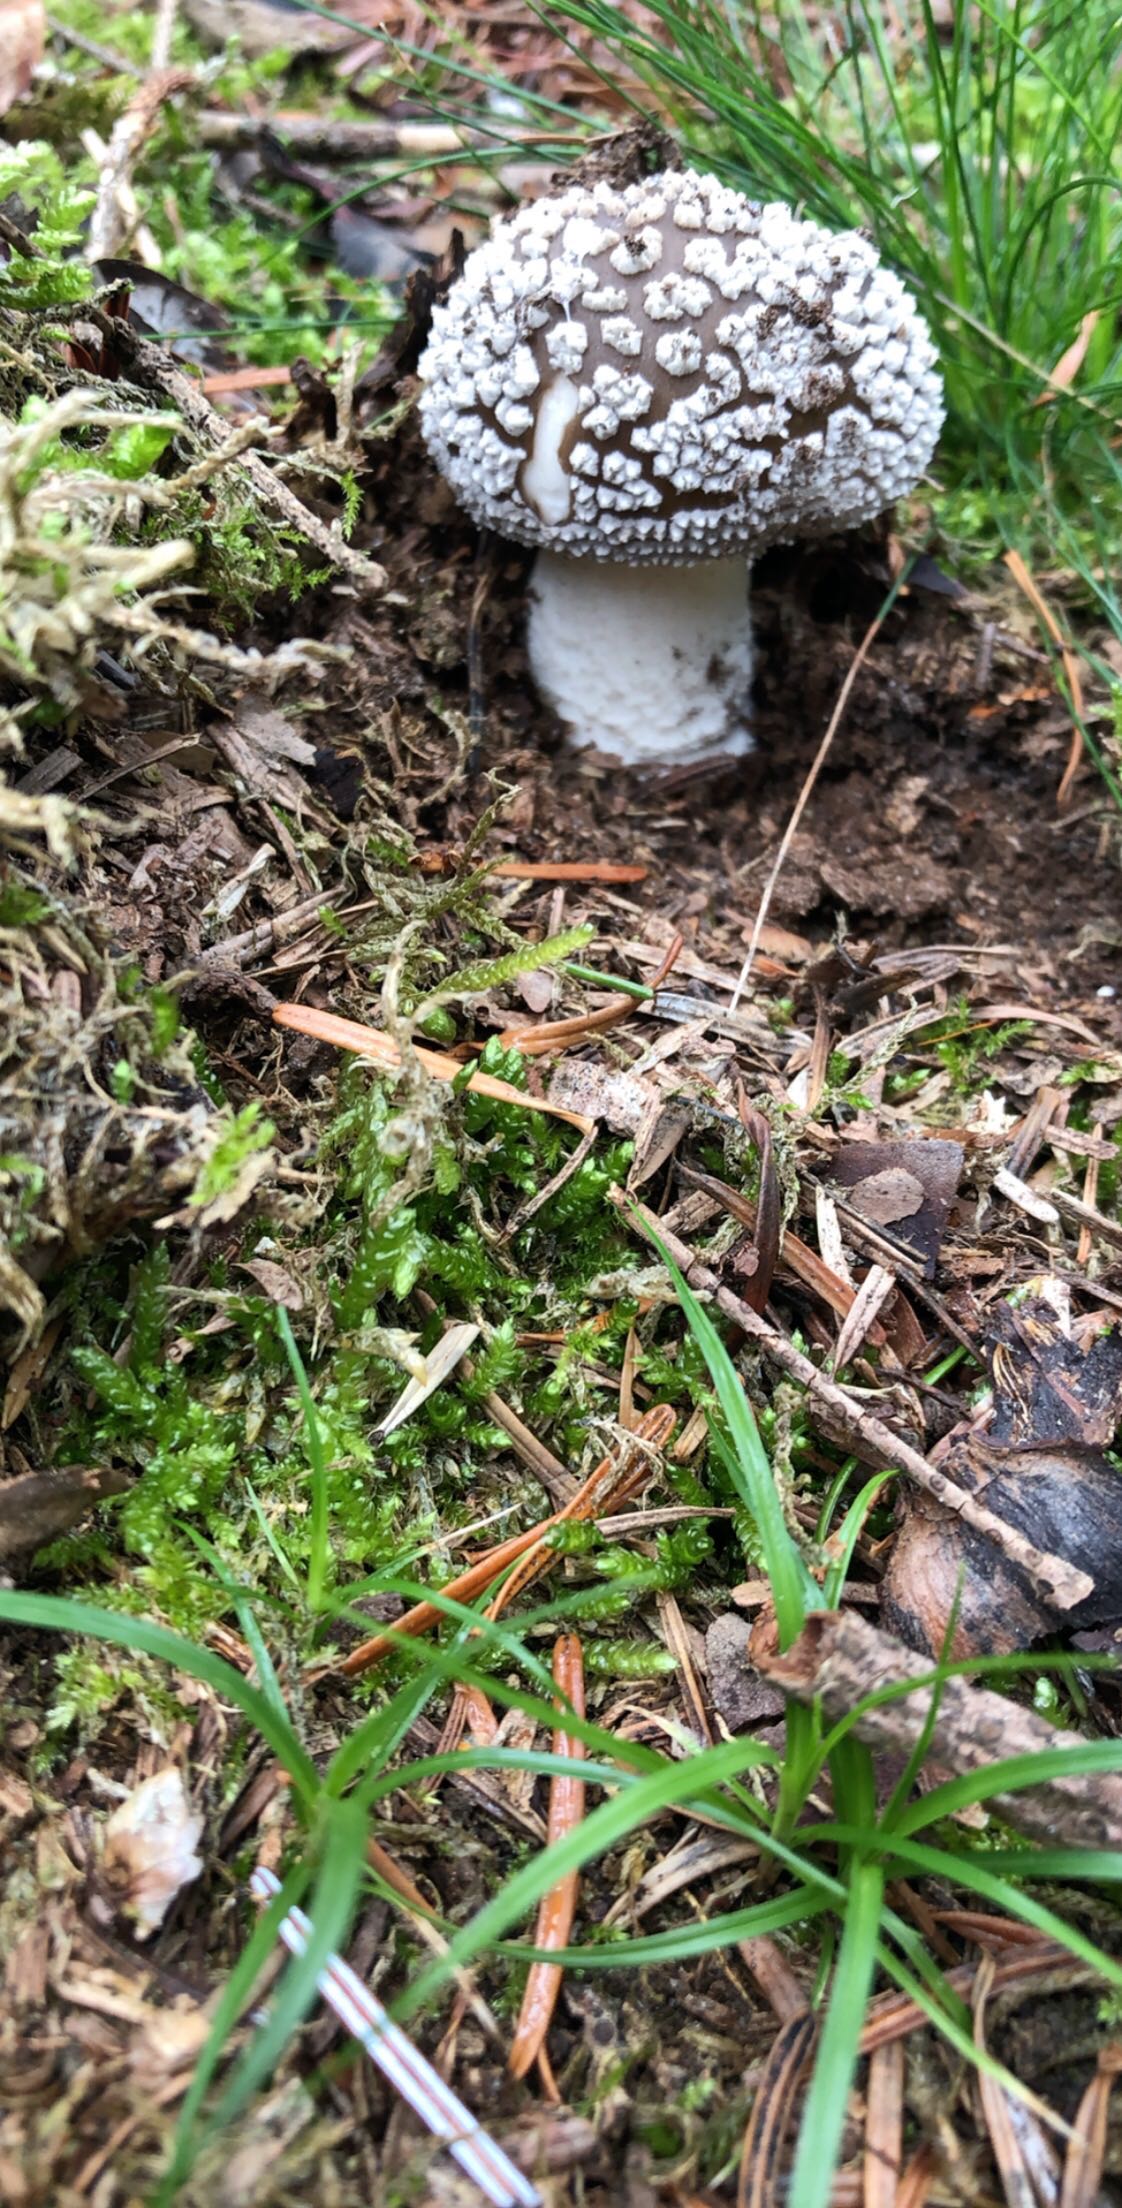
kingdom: Fungi
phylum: Basidiomycota
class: Agaricomycetes
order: Agaricales
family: Amanitaceae
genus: Amanita
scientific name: Amanita
